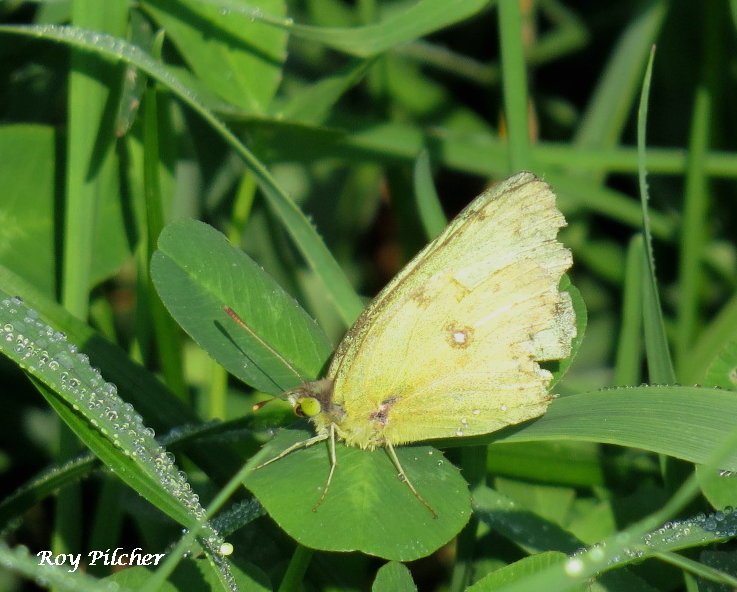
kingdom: Animalia
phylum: Arthropoda
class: Insecta
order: Lepidoptera
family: Pieridae
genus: Colias
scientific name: Colias philodice
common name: Clouded Sulphur
